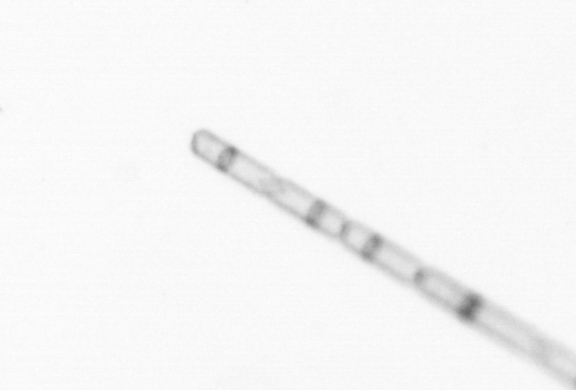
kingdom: Chromista
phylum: Ochrophyta
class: Bacillariophyceae
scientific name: Bacillariophyceae
